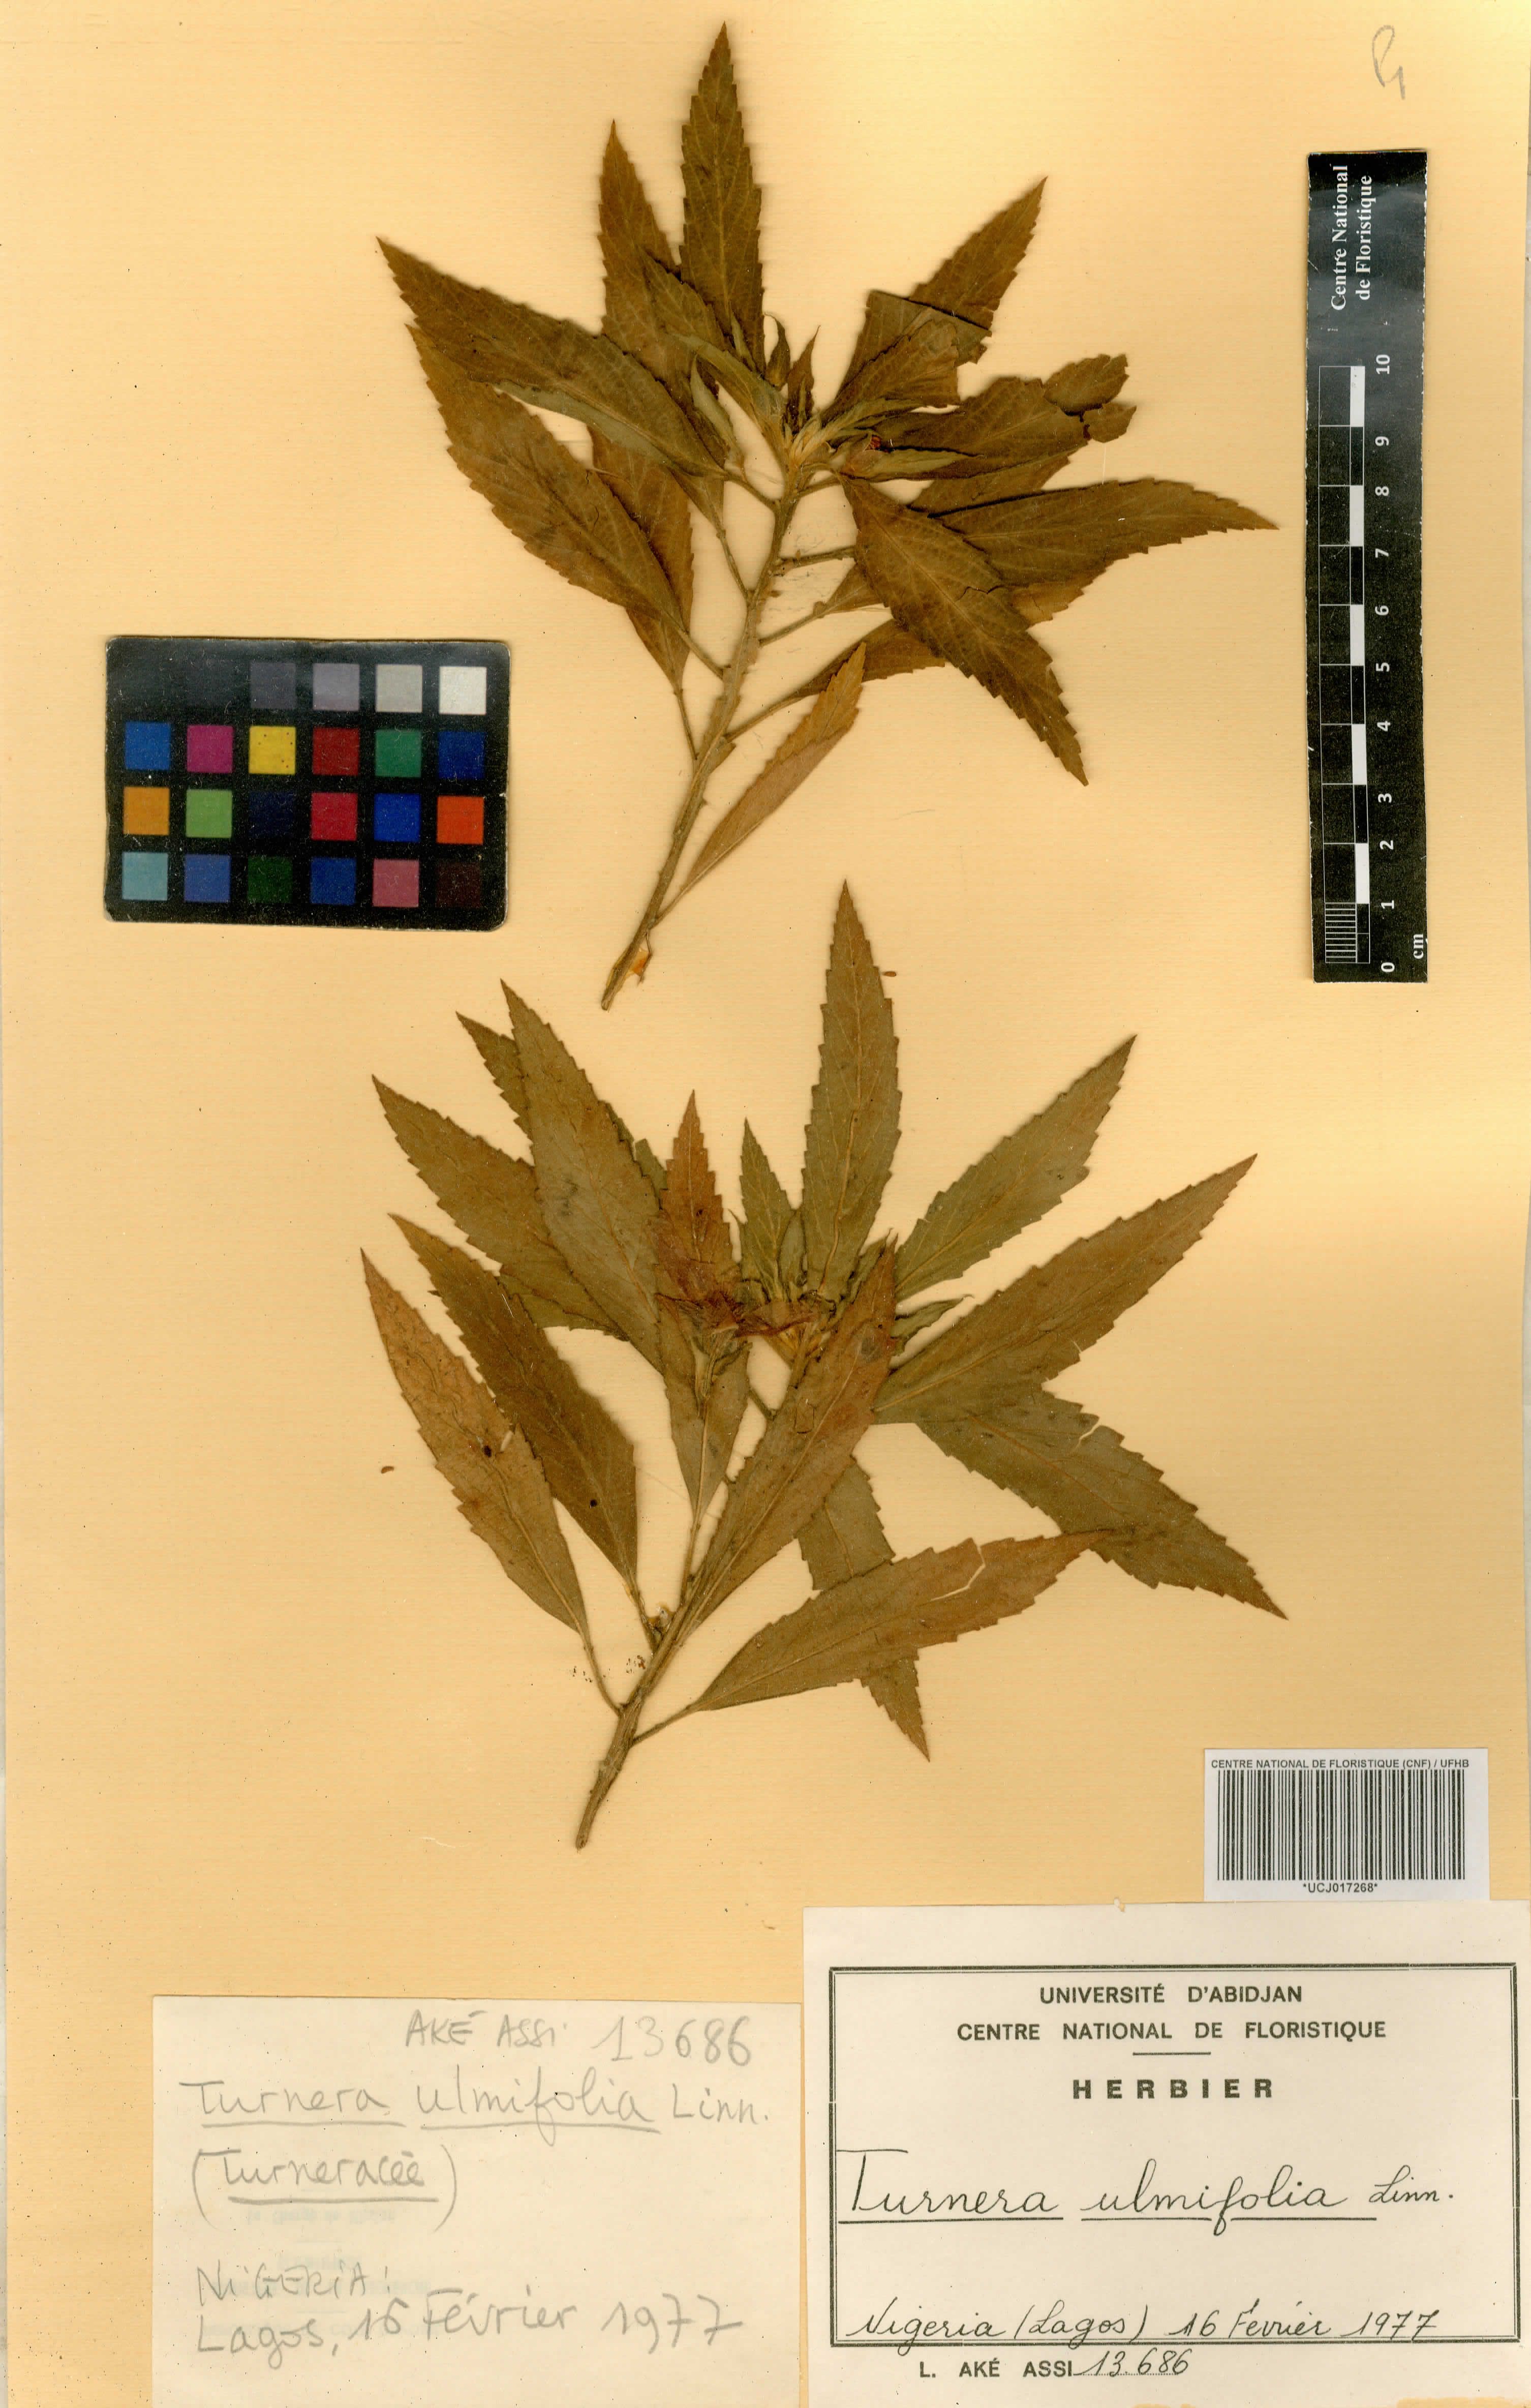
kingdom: Plantae
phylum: Tracheophyta
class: Magnoliopsida
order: Malpighiales
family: Turneraceae
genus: Turnera
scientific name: Turnera ulmifolia
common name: Ramgoat dashalong
